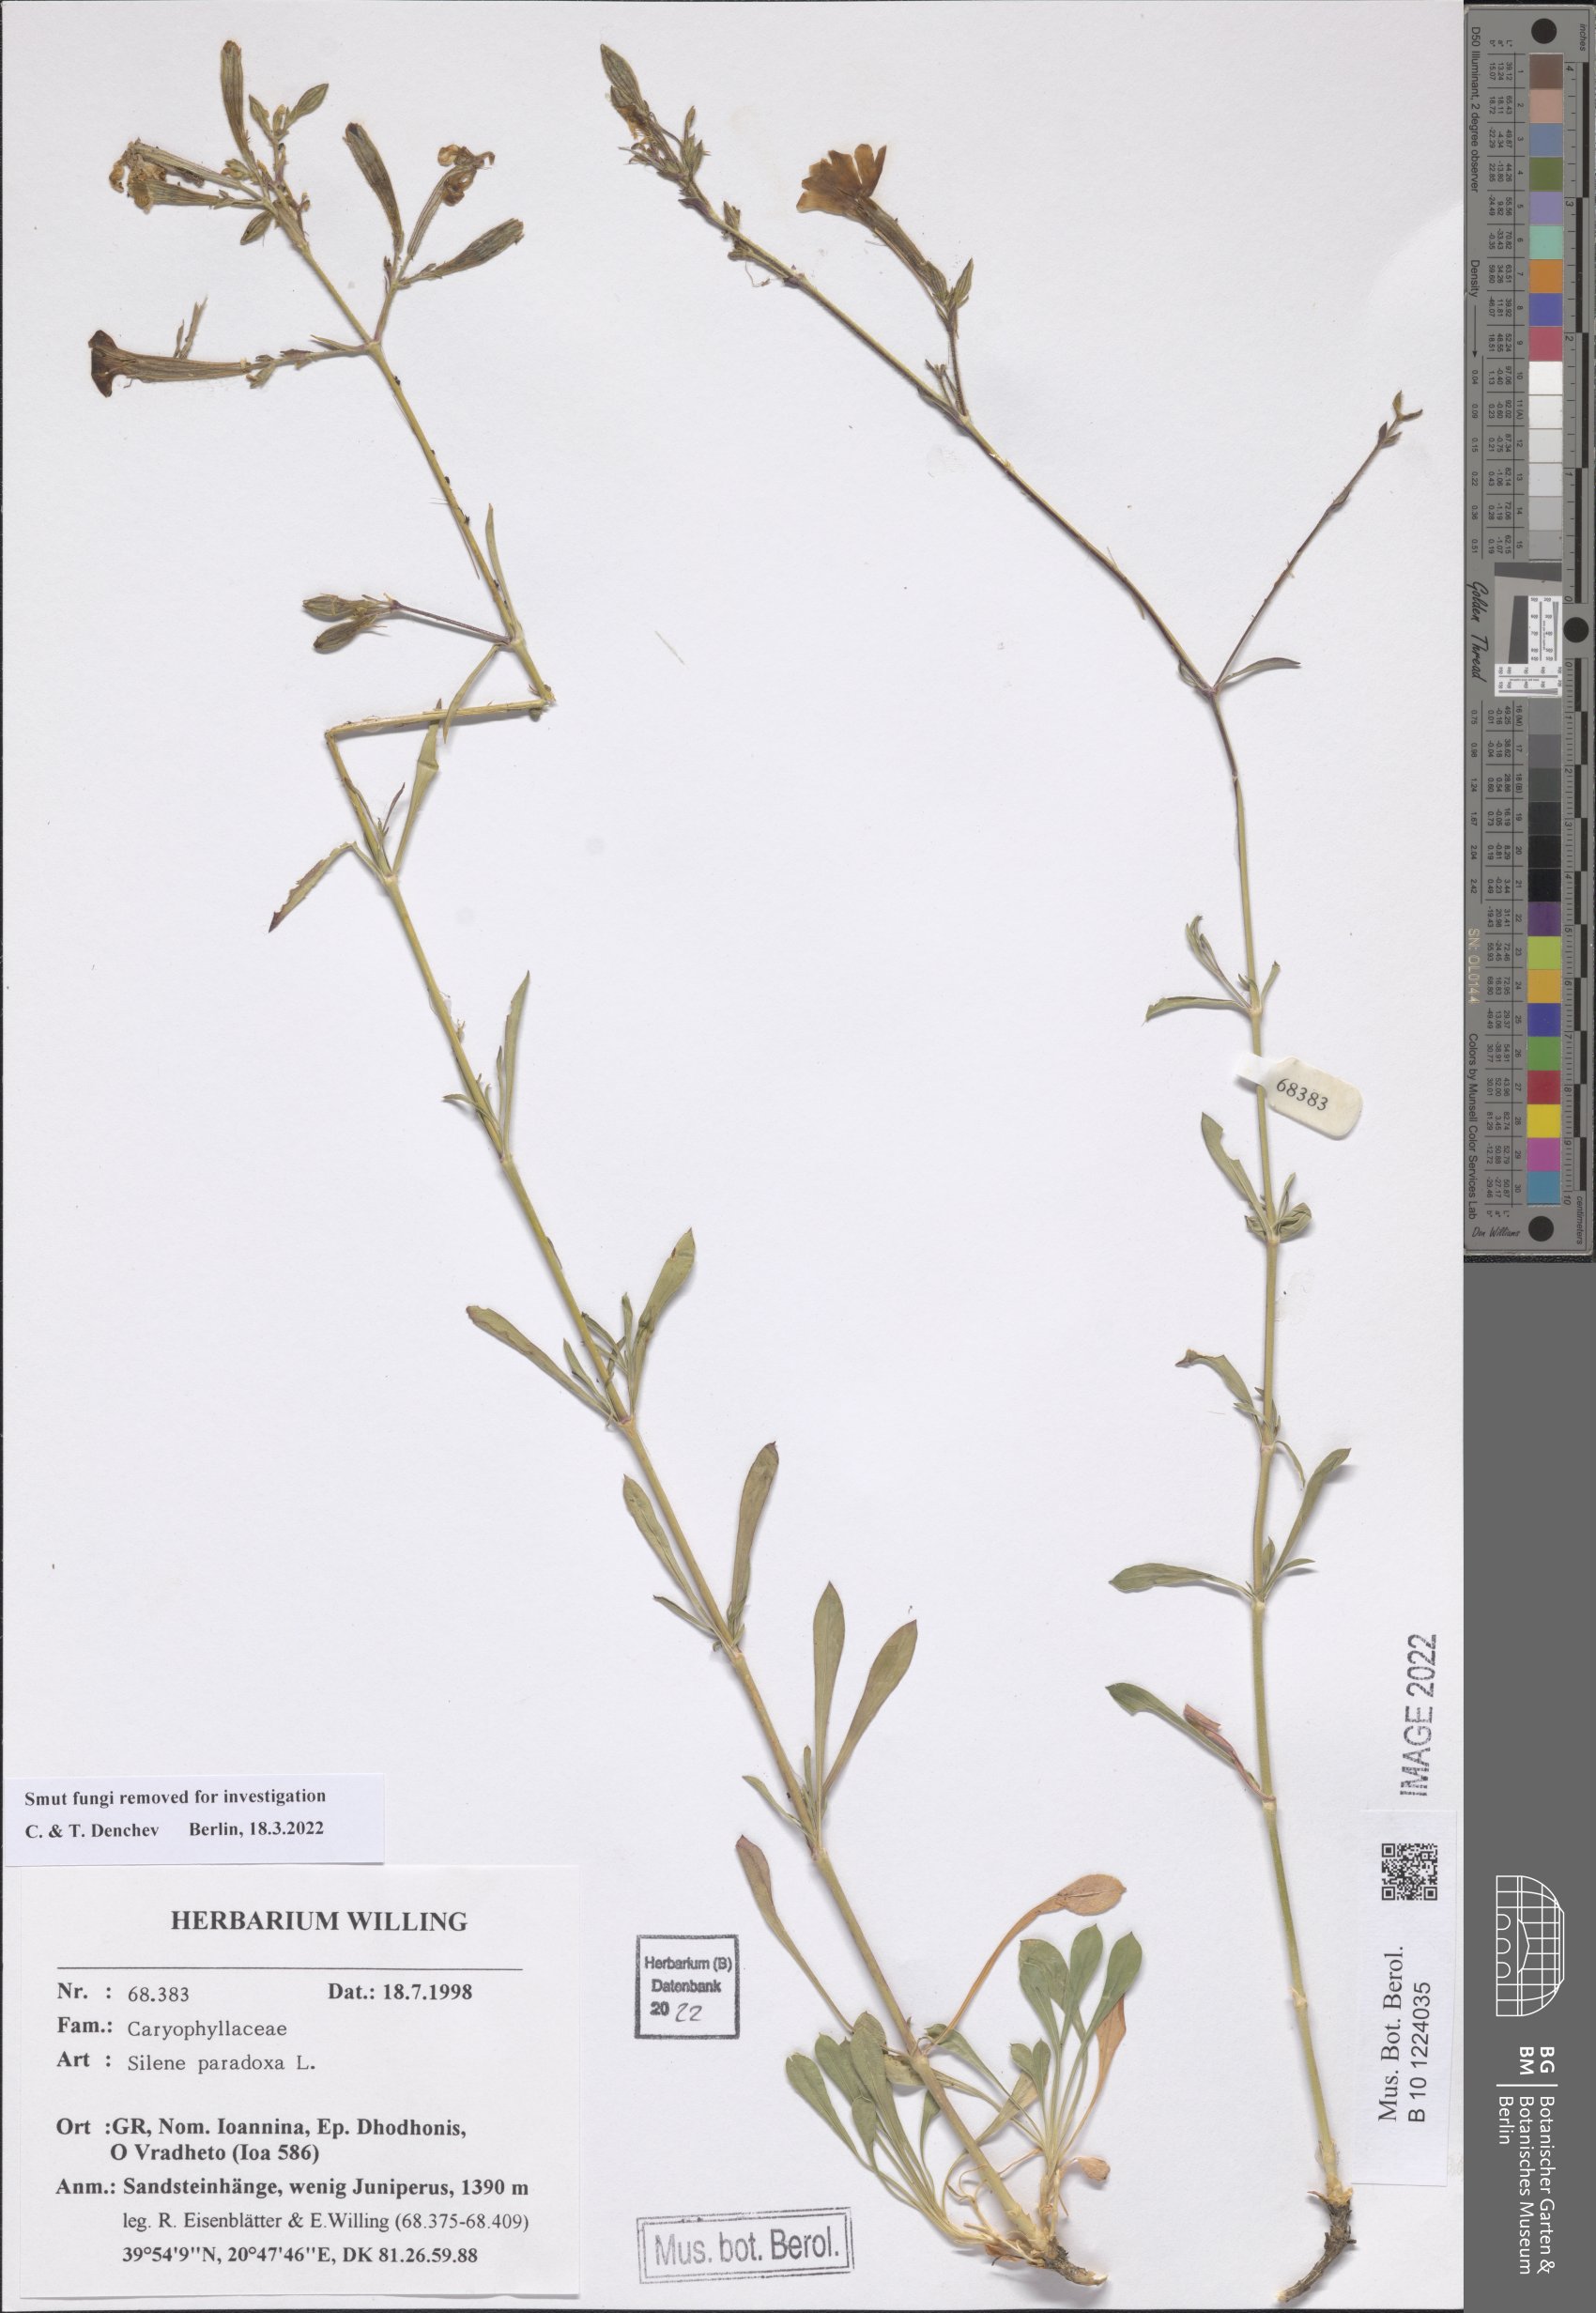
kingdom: Plantae
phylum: Tracheophyta
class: Magnoliopsida
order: Caryophyllales
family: Caryophyllaceae
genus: Silene
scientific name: Silene paradoxa
